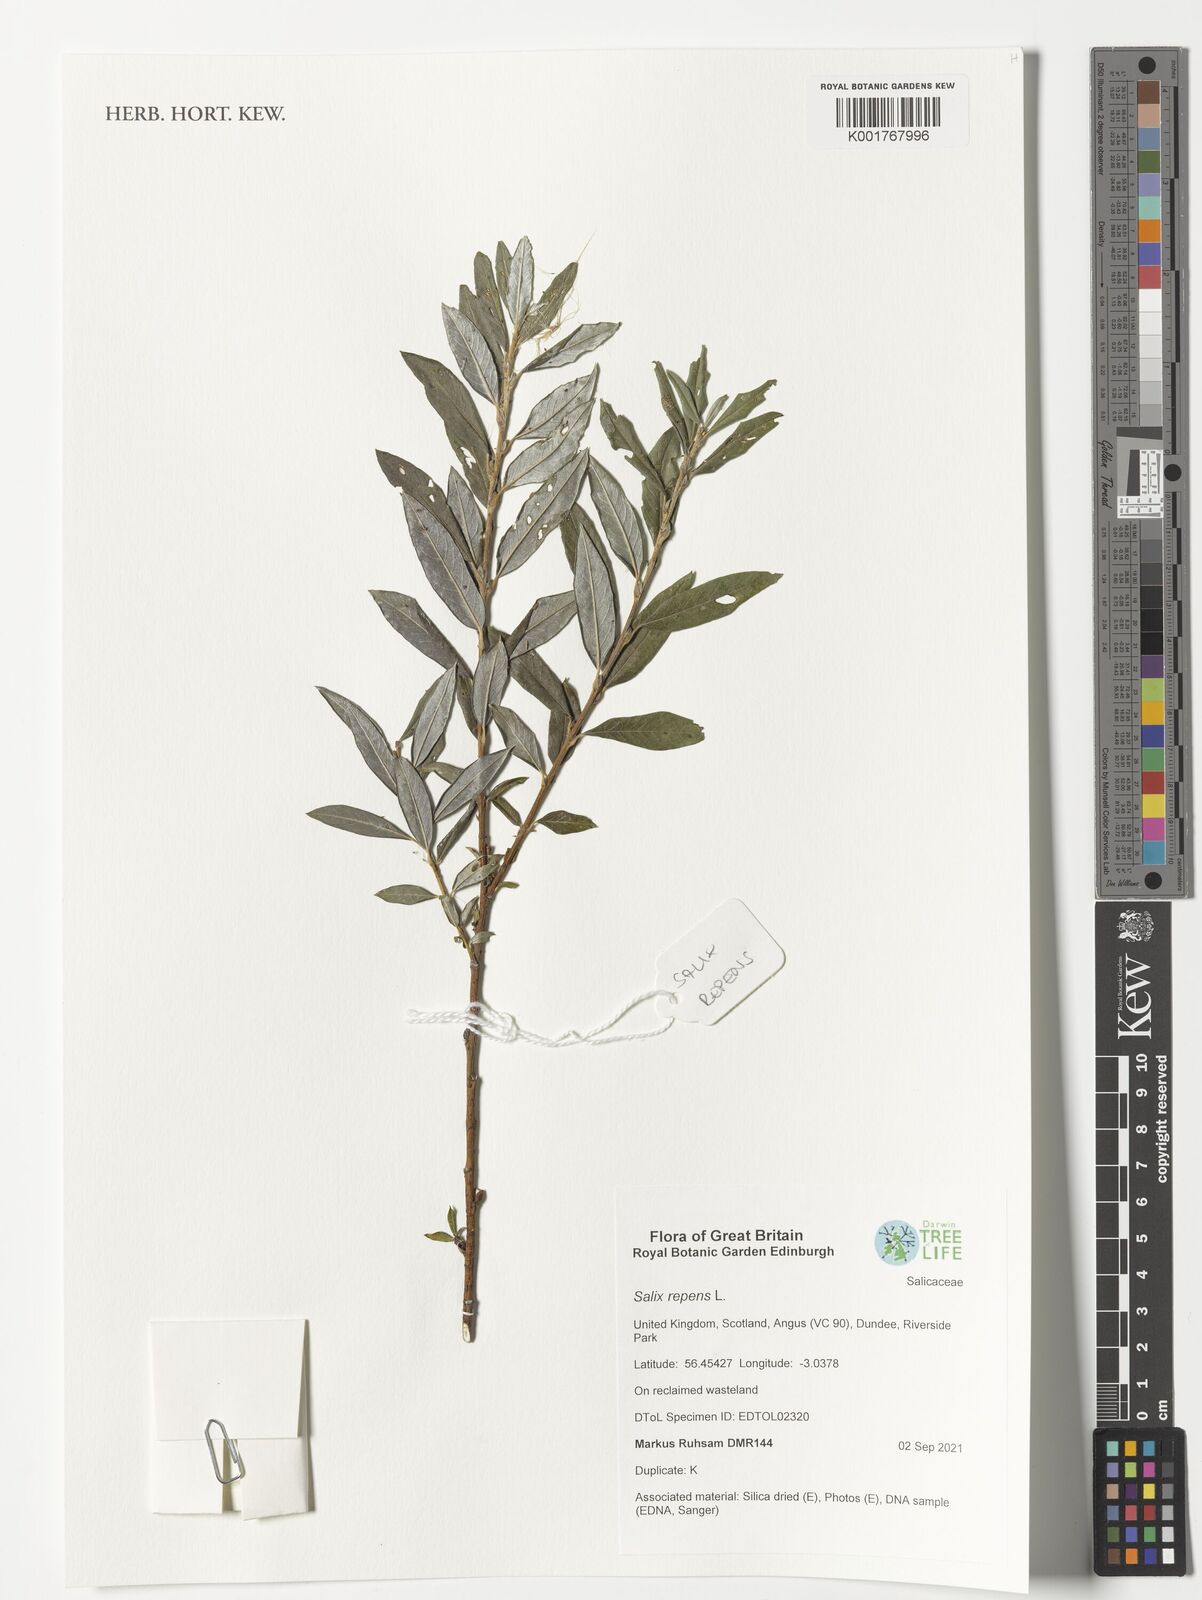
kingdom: Plantae
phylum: Tracheophyta
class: Magnoliopsida
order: Malpighiales
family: Salicaceae
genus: Salix
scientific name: Salix repens
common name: Creeping willow
